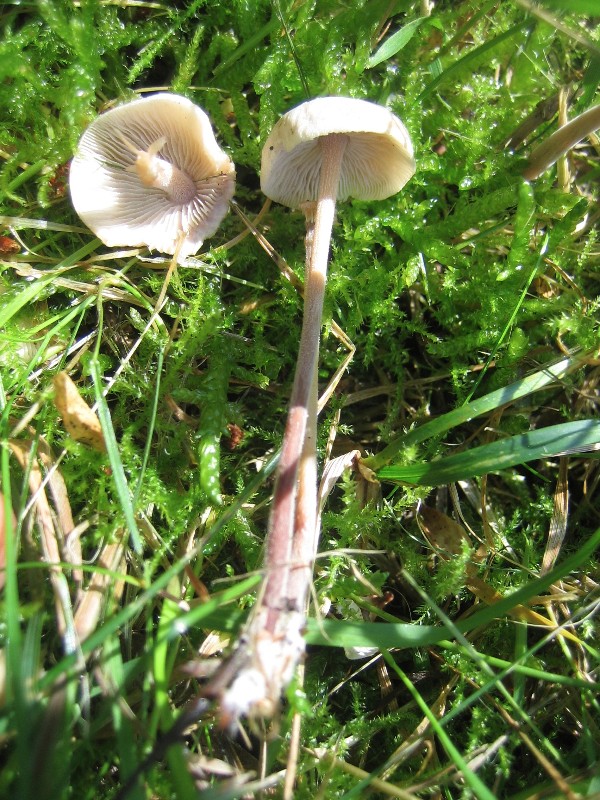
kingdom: Fungi
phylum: Basidiomycota
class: Agaricomycetes
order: Agaricales
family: Omphalotaceae
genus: Collybiopsis
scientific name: Collybiopsis confluens
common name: knippe-fladhat
